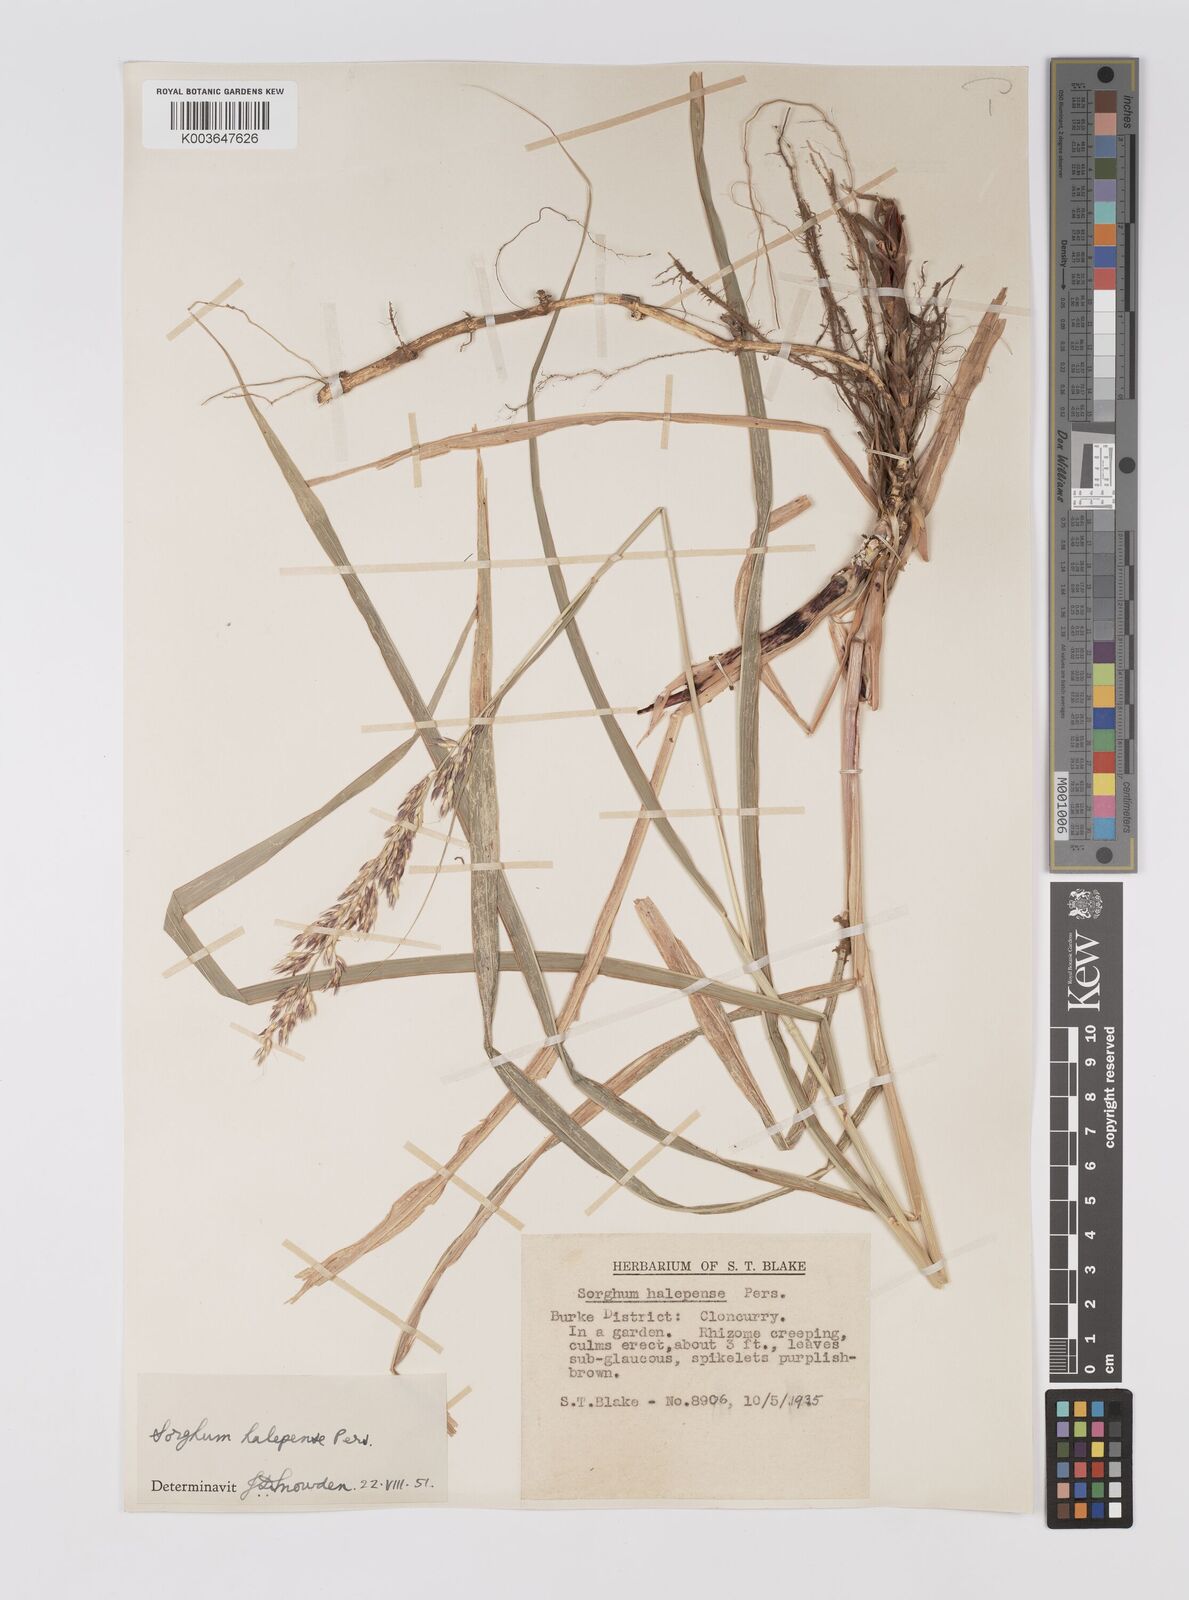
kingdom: Plantae
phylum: Tracheophyta
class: Liliopsida
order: Poales
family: Poaceae
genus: Sorghum
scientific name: Sorghum halepense
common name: Johnson-grass
